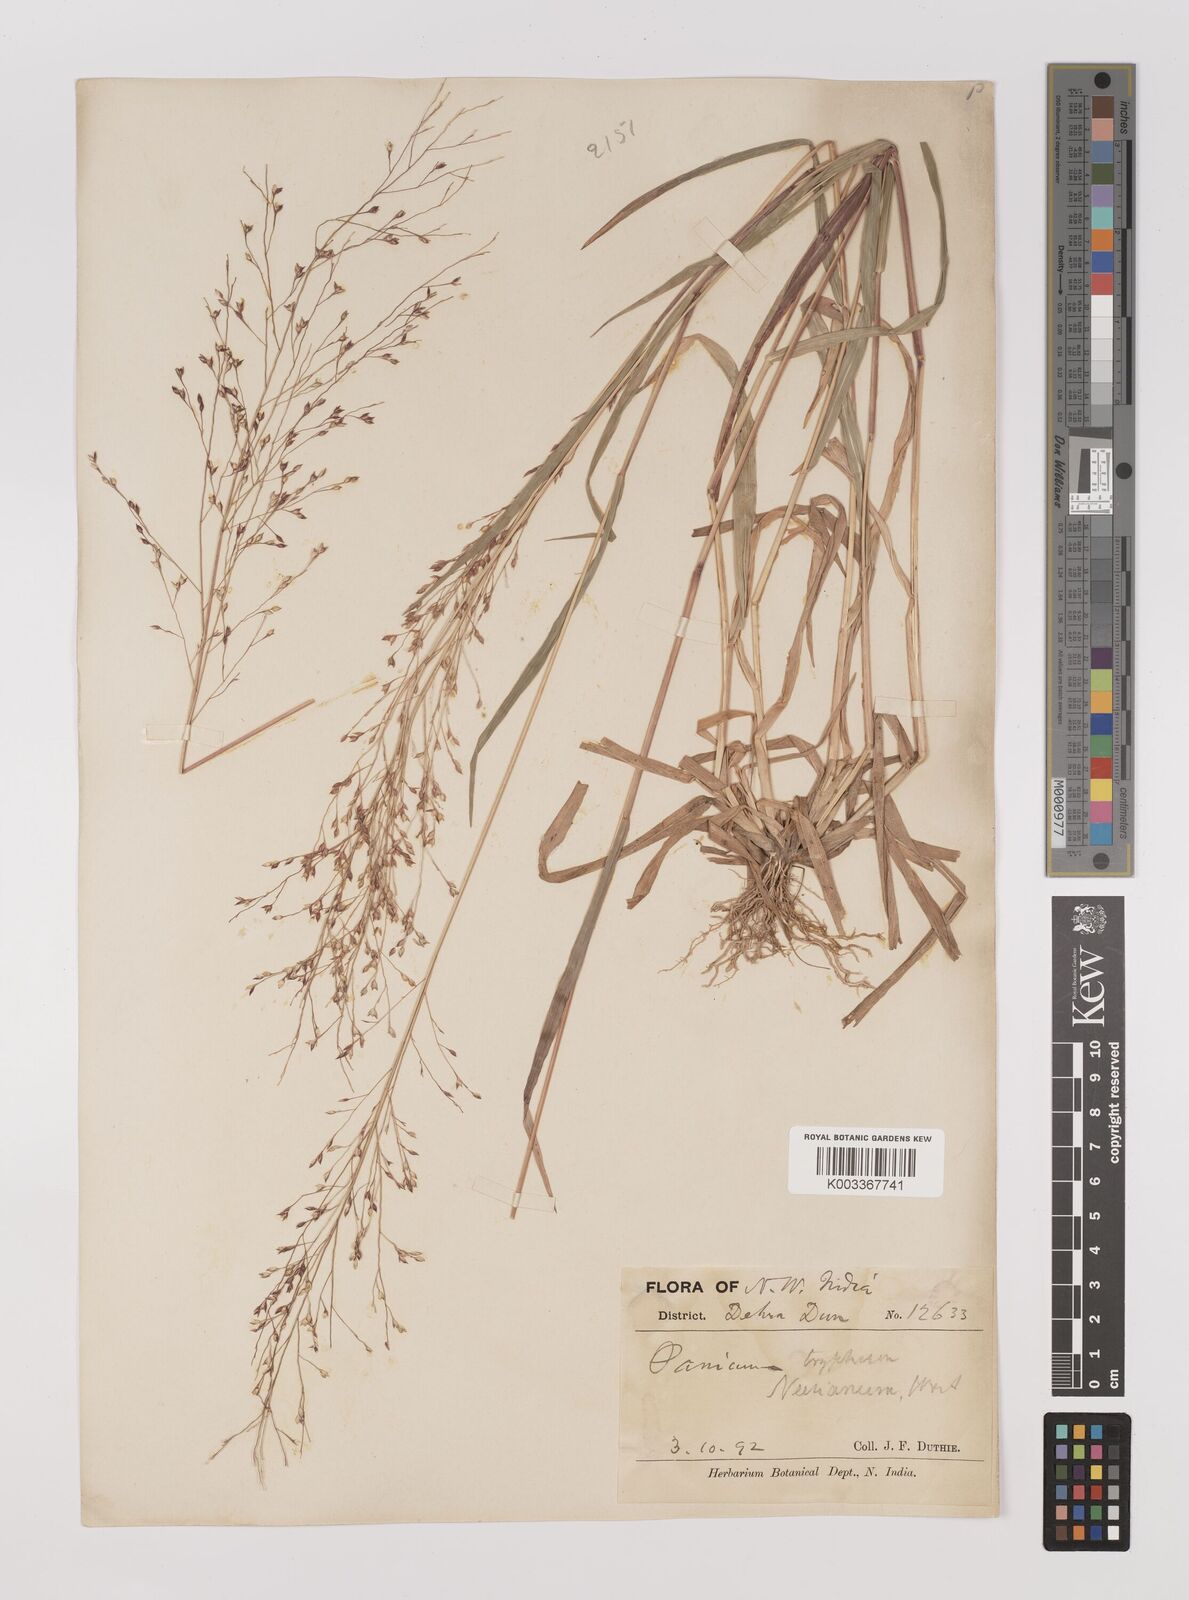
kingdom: Plantae
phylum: Tracheophyta
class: Liliopsida
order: Poales
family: Poaceae
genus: Panicum
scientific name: Panicum curviflorum
